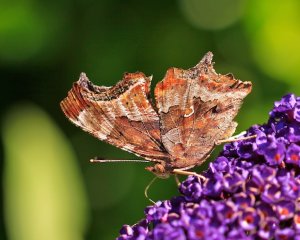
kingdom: Animalia
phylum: Arthropoda
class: Insecta
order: Lepidoptera
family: Nymphalidae
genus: Polygonia
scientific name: Polygonia comma
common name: Eastern Comma
